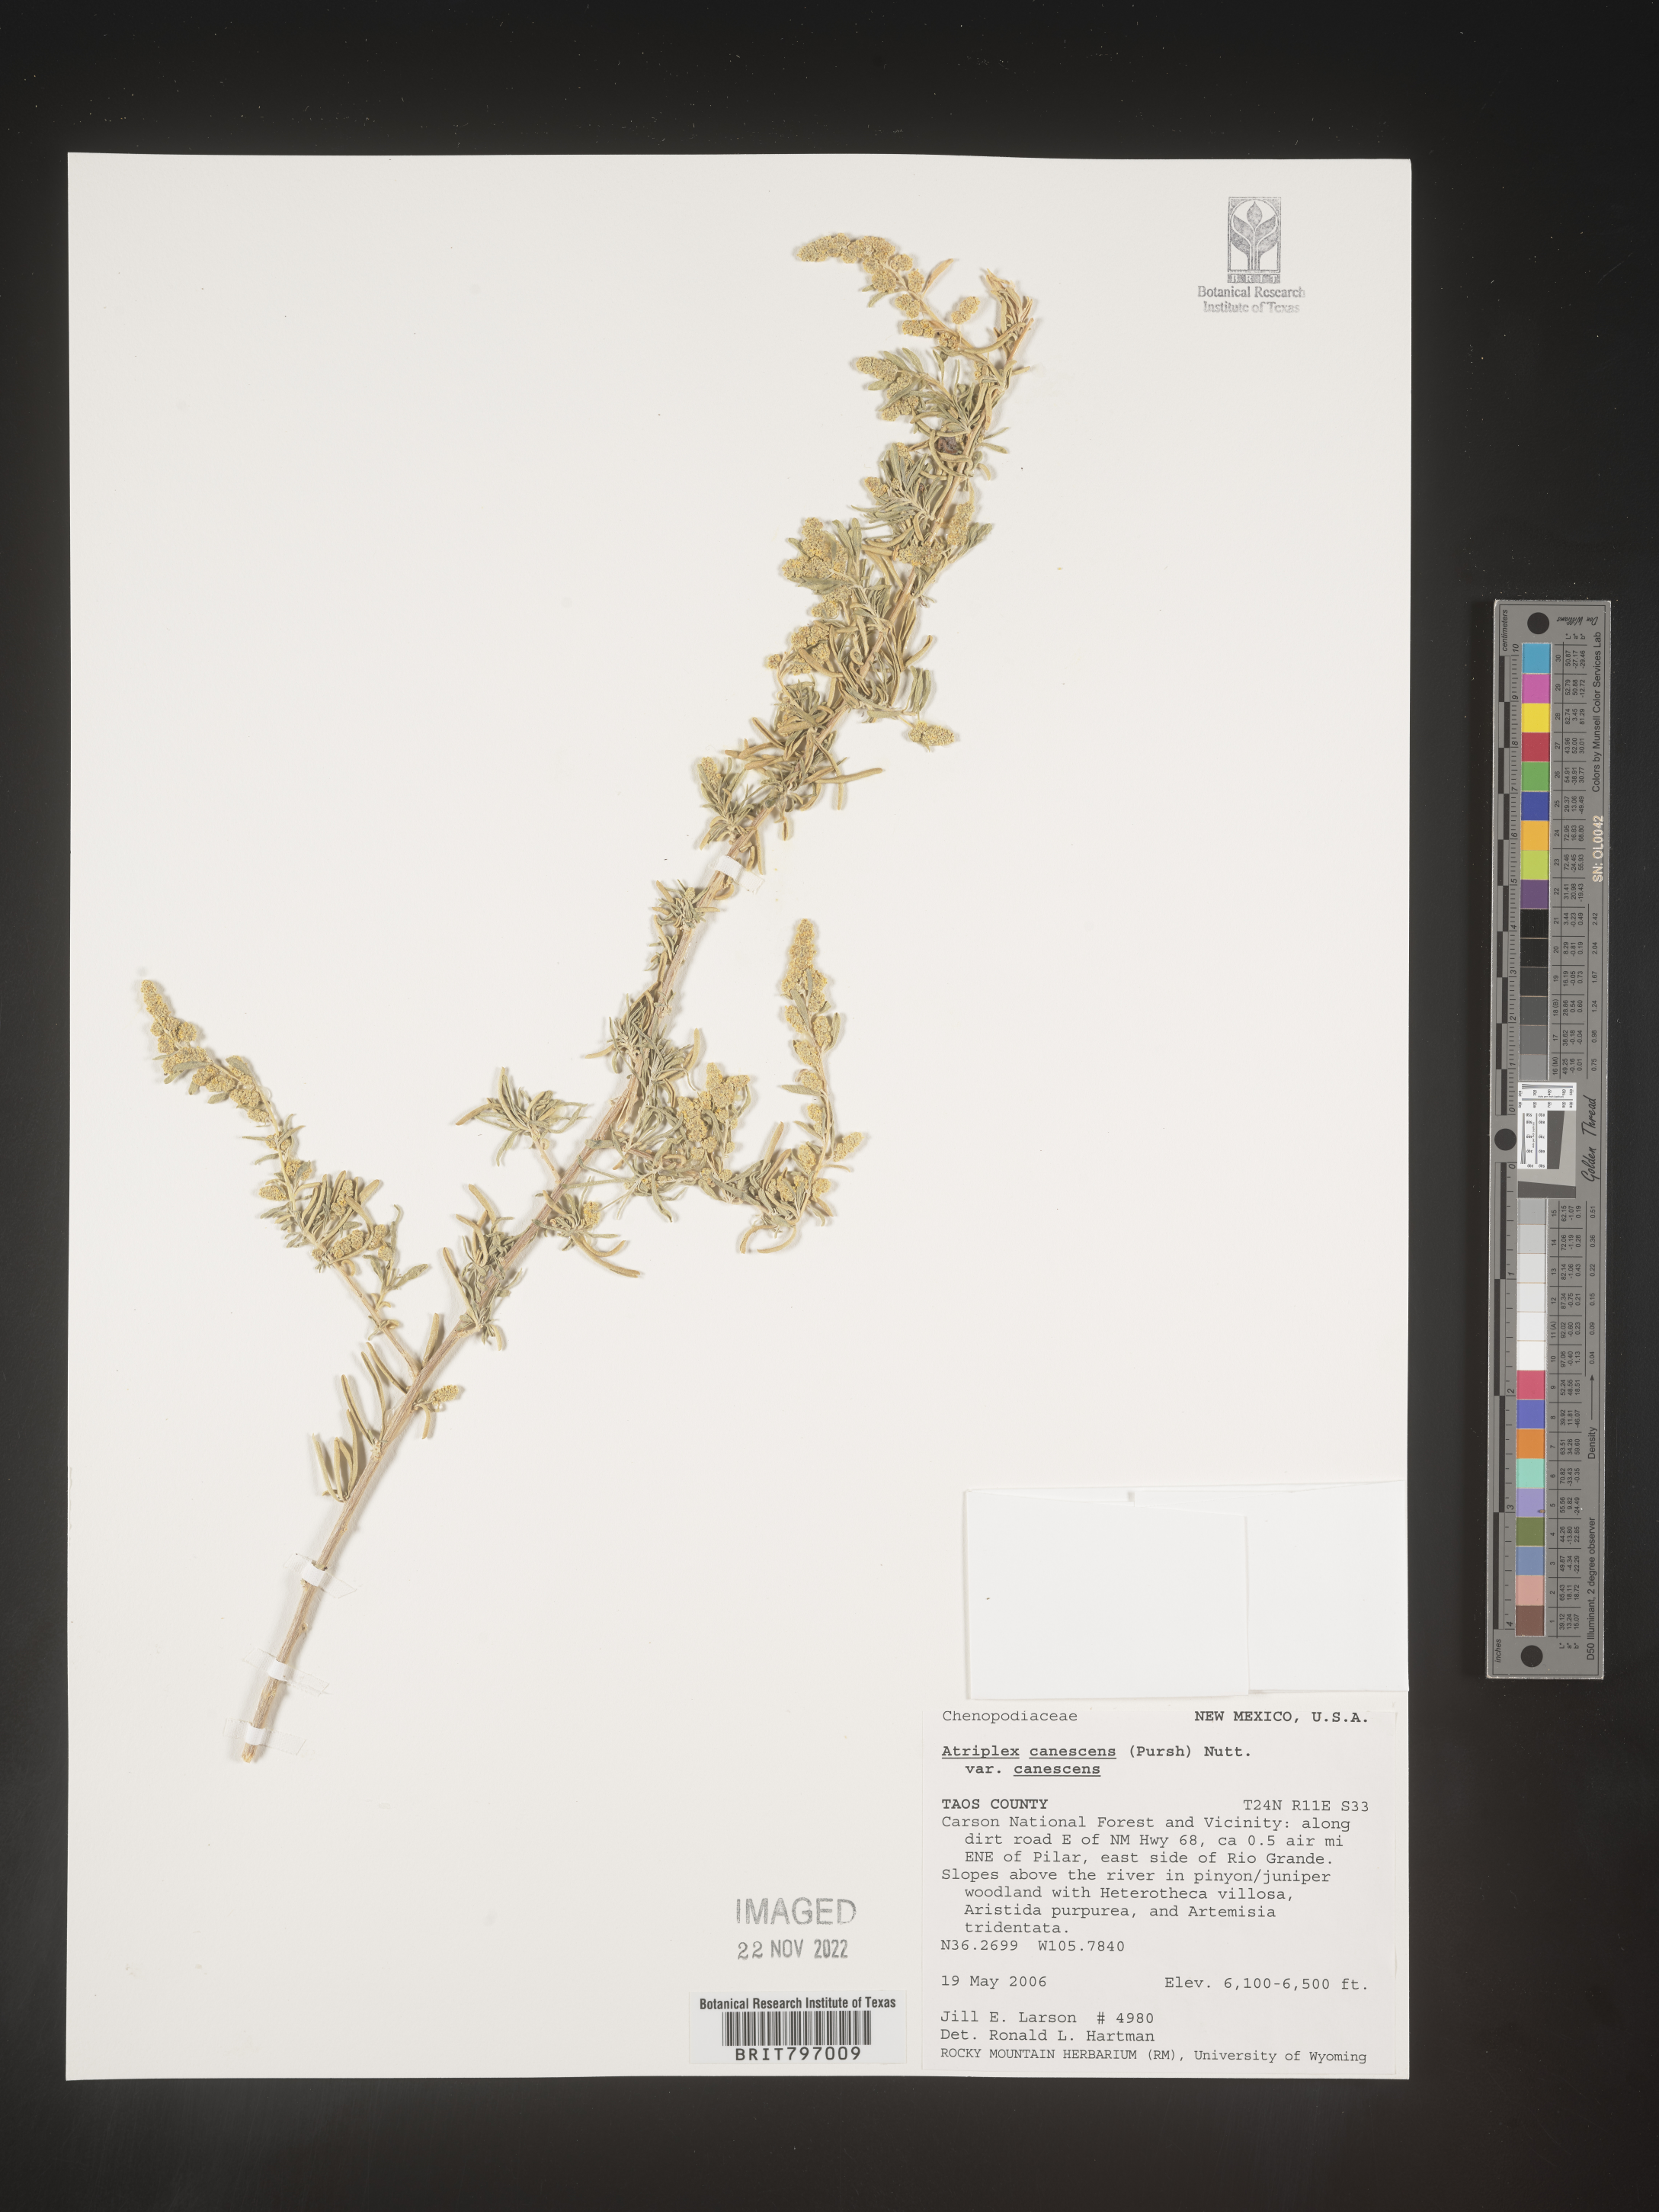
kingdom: Plantae
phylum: Tracheophyta
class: Magnoliopsida
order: Caryophyllales
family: Amaranthaceae
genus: Atriplex
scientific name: Atriplex canescens
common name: Four-wing saltbush
